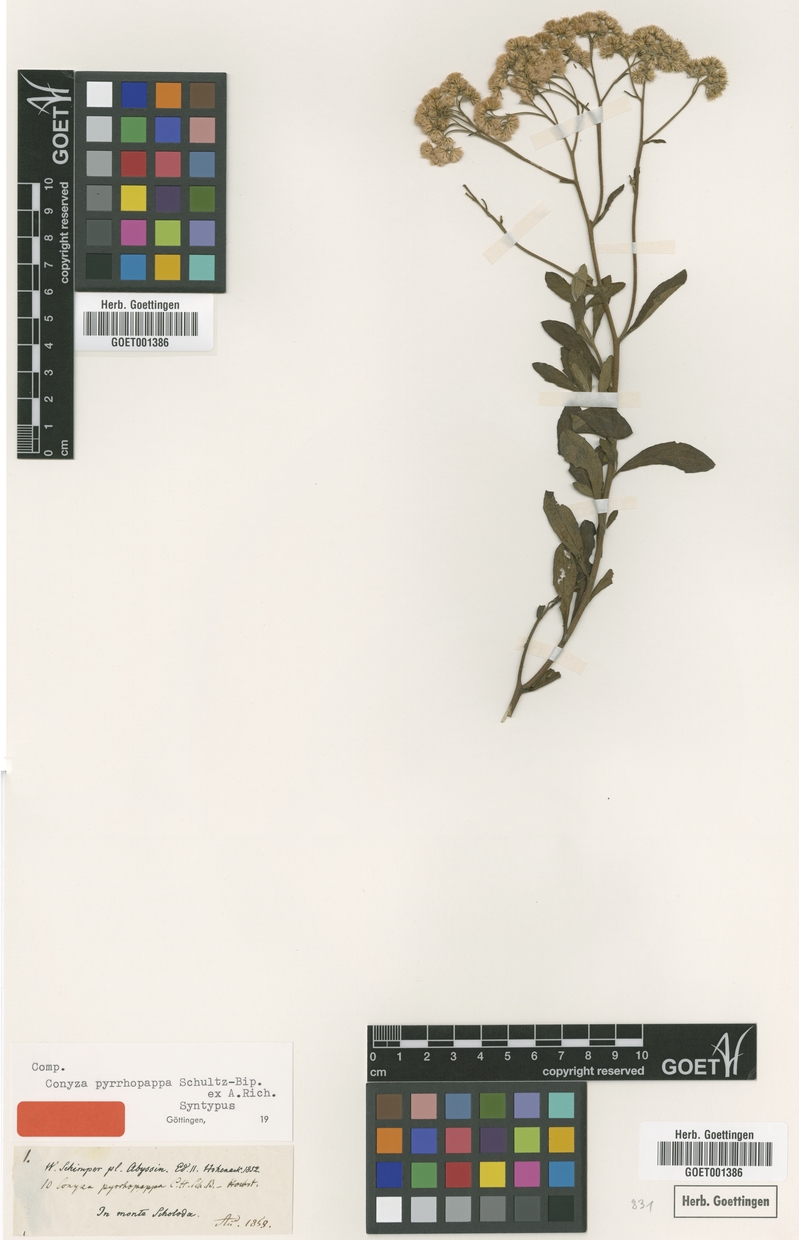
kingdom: Plantae
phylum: Tracheophyta
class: Magnoliopsida
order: Asterales
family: Asteraceae
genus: Microglossa
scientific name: Microglossa pyrrhopappa
